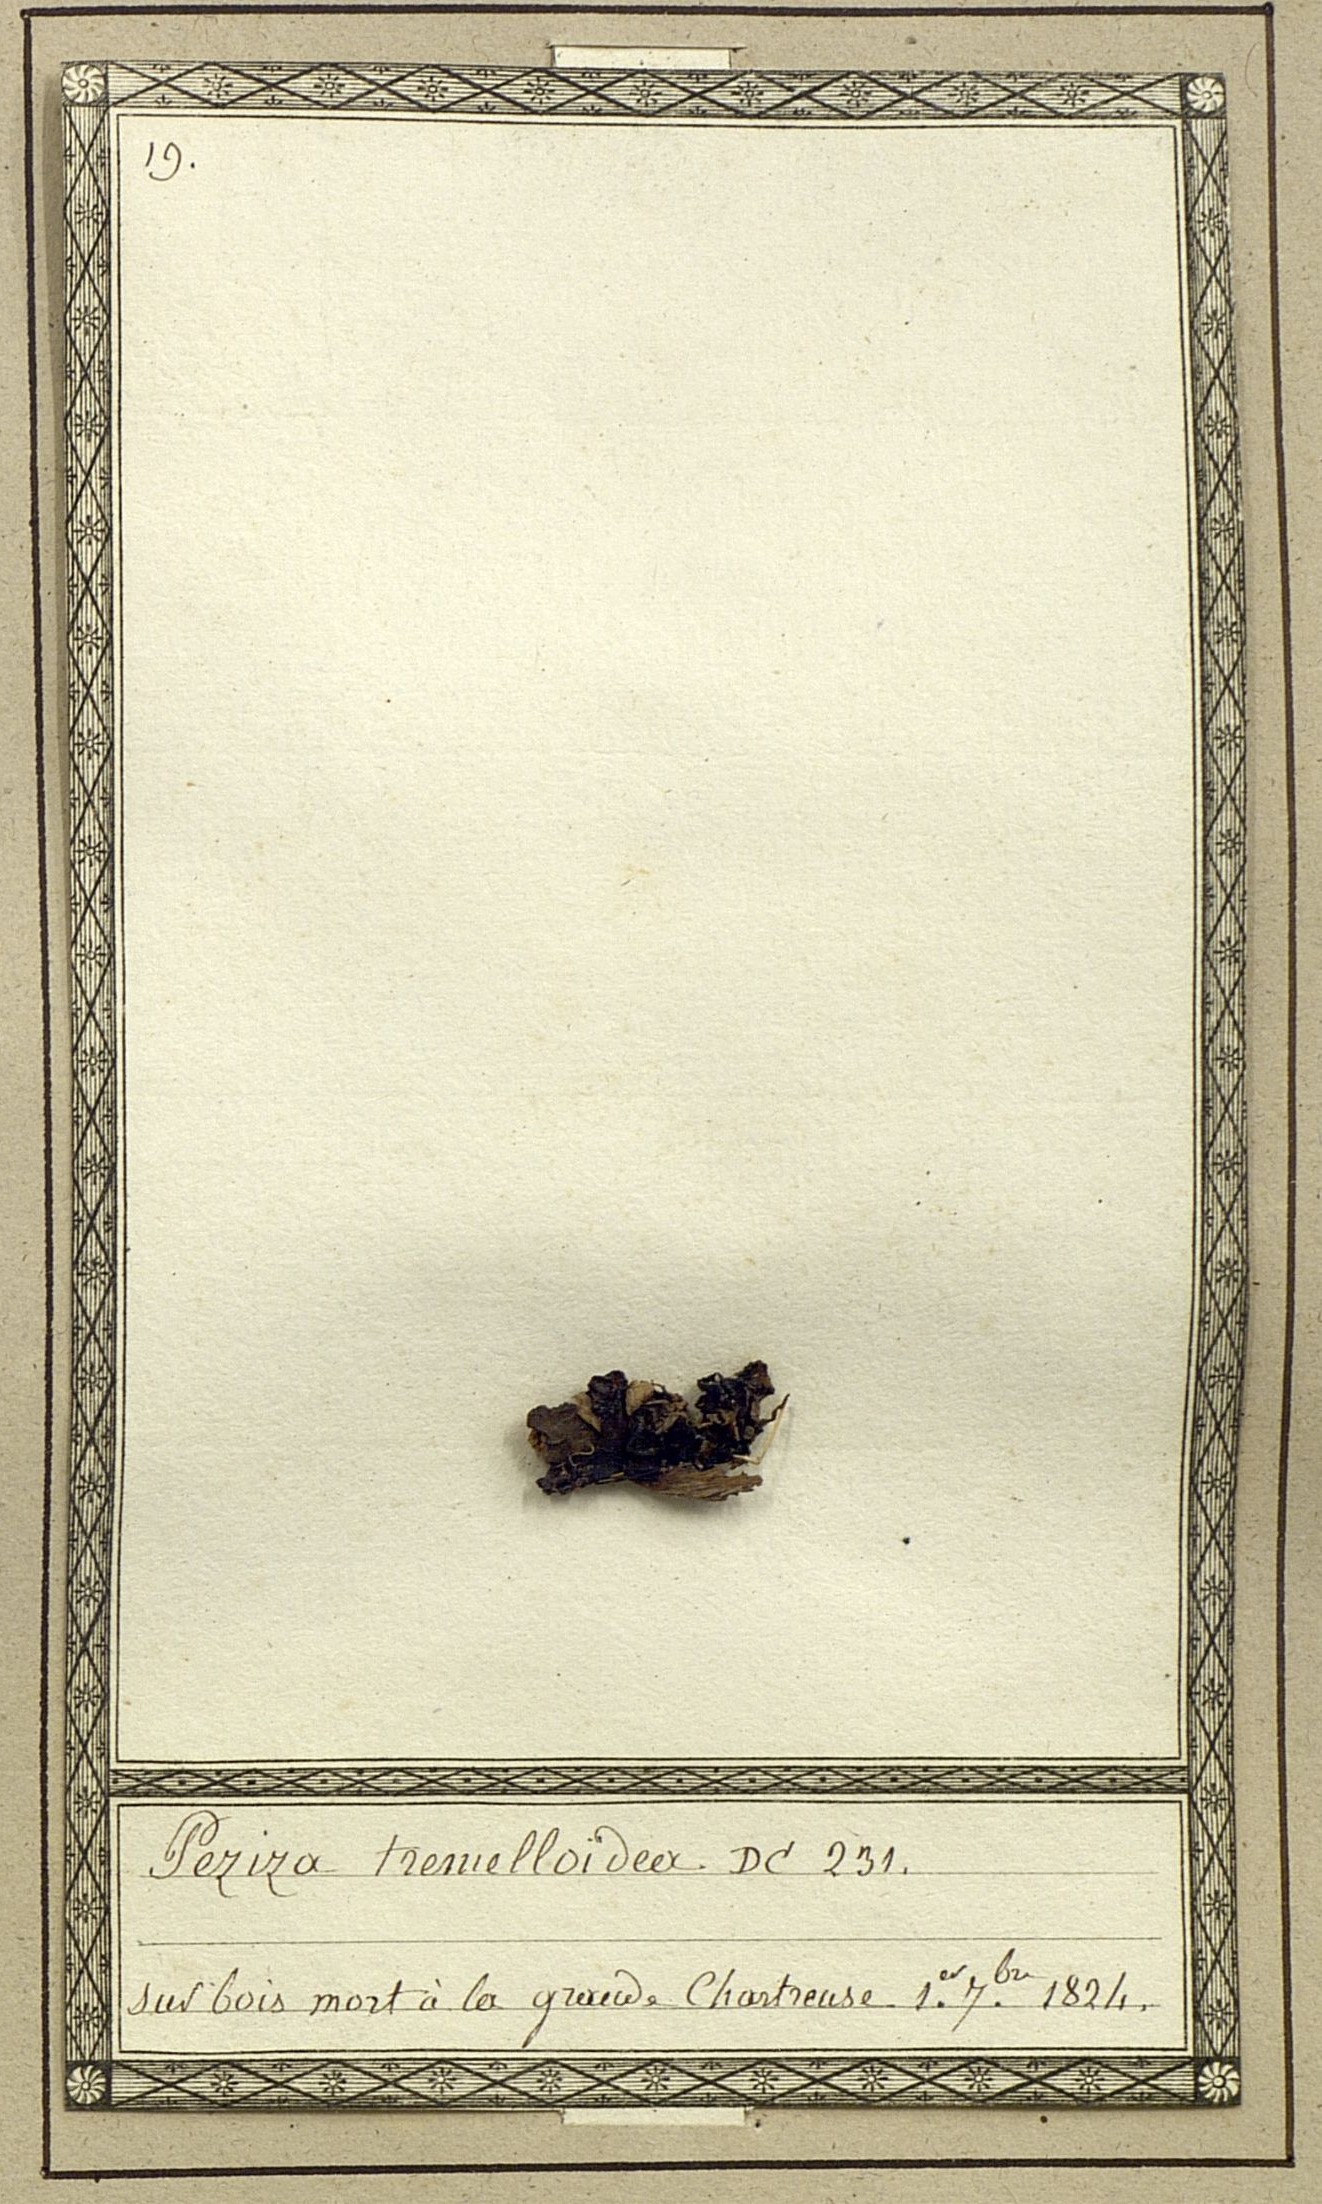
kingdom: Fungi
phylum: Ascomycota
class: Leotiomycetes
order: Helotiales
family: Gelatinodiscaceae
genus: Ascocoryne
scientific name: Ascocoryne sarcoides
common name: Purple jellydisc
